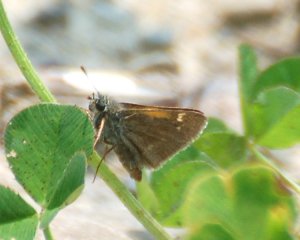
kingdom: Animalia
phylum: Arthropoda
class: Insecta
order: Lepidoptera
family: Hesperiidae
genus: Polites
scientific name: Polites themistocles
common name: Tawny-edged Skipper
